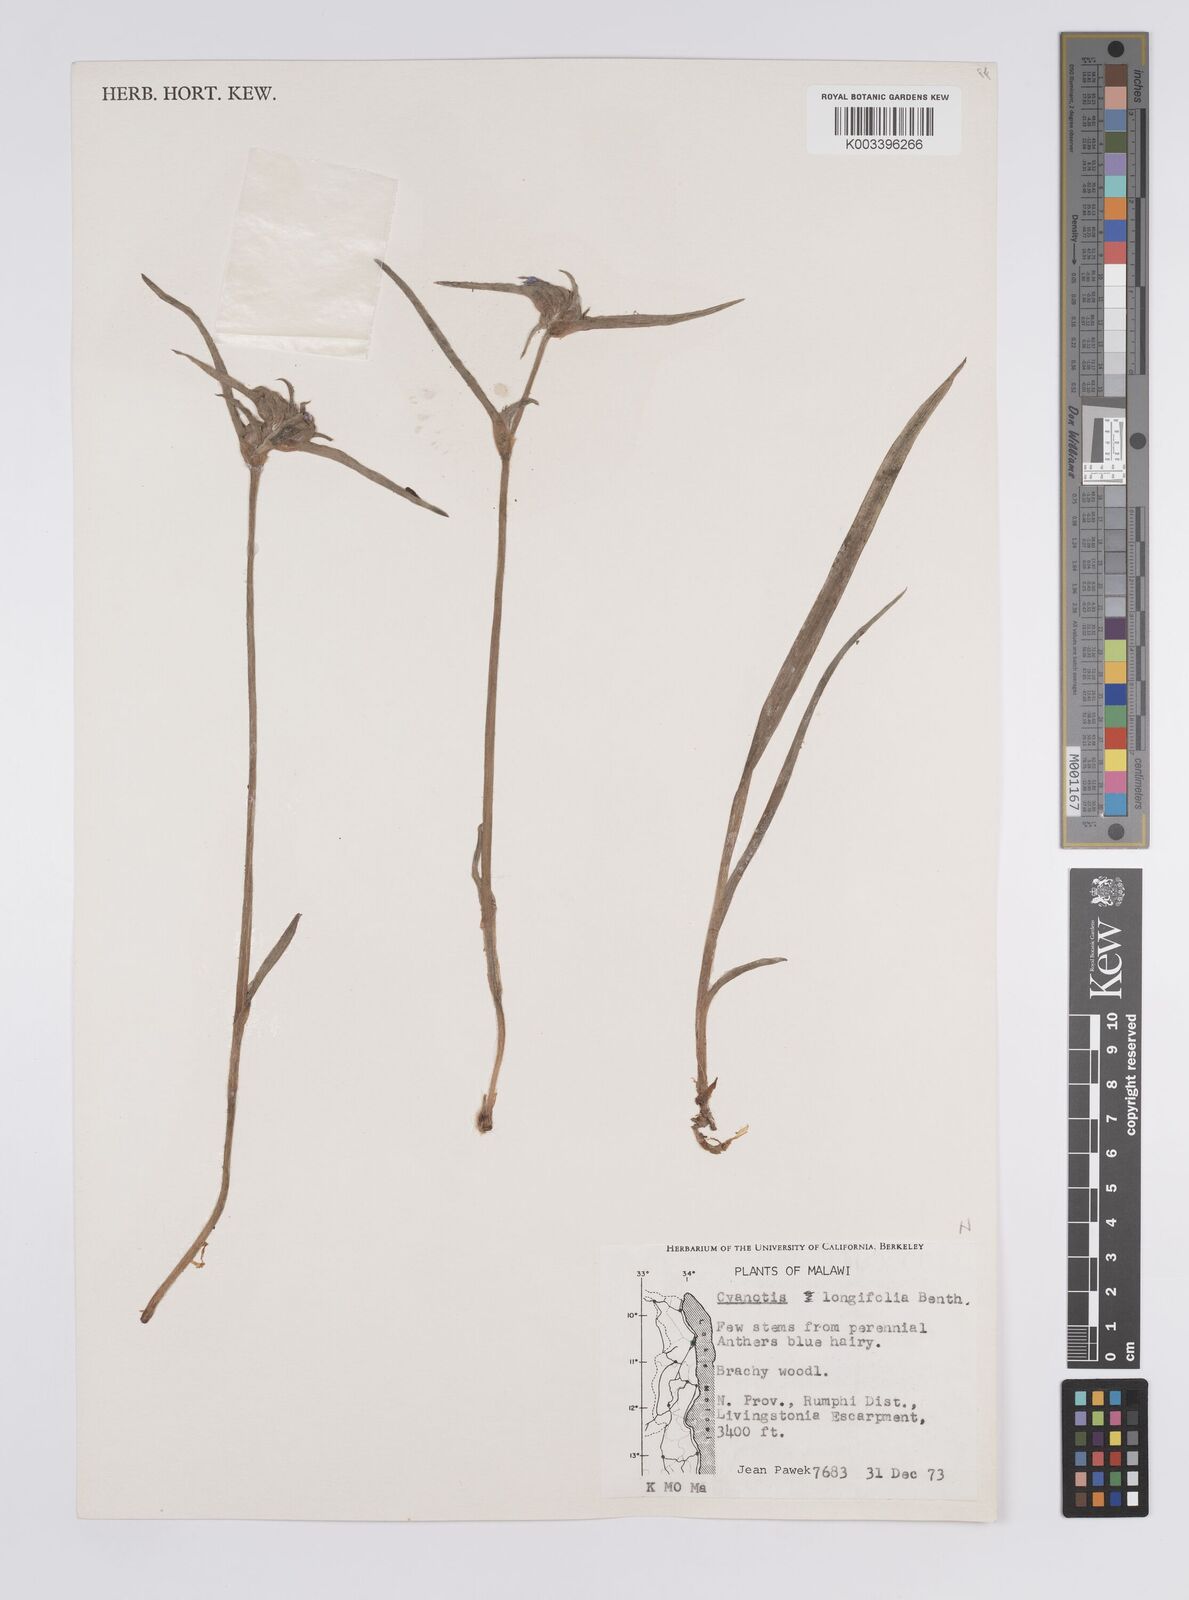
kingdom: Plantae
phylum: Tracheophyta
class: Liliopsida
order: Commelinales
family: Commelinaceae
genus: Cyanotis
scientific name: Cyanotis longifolia
